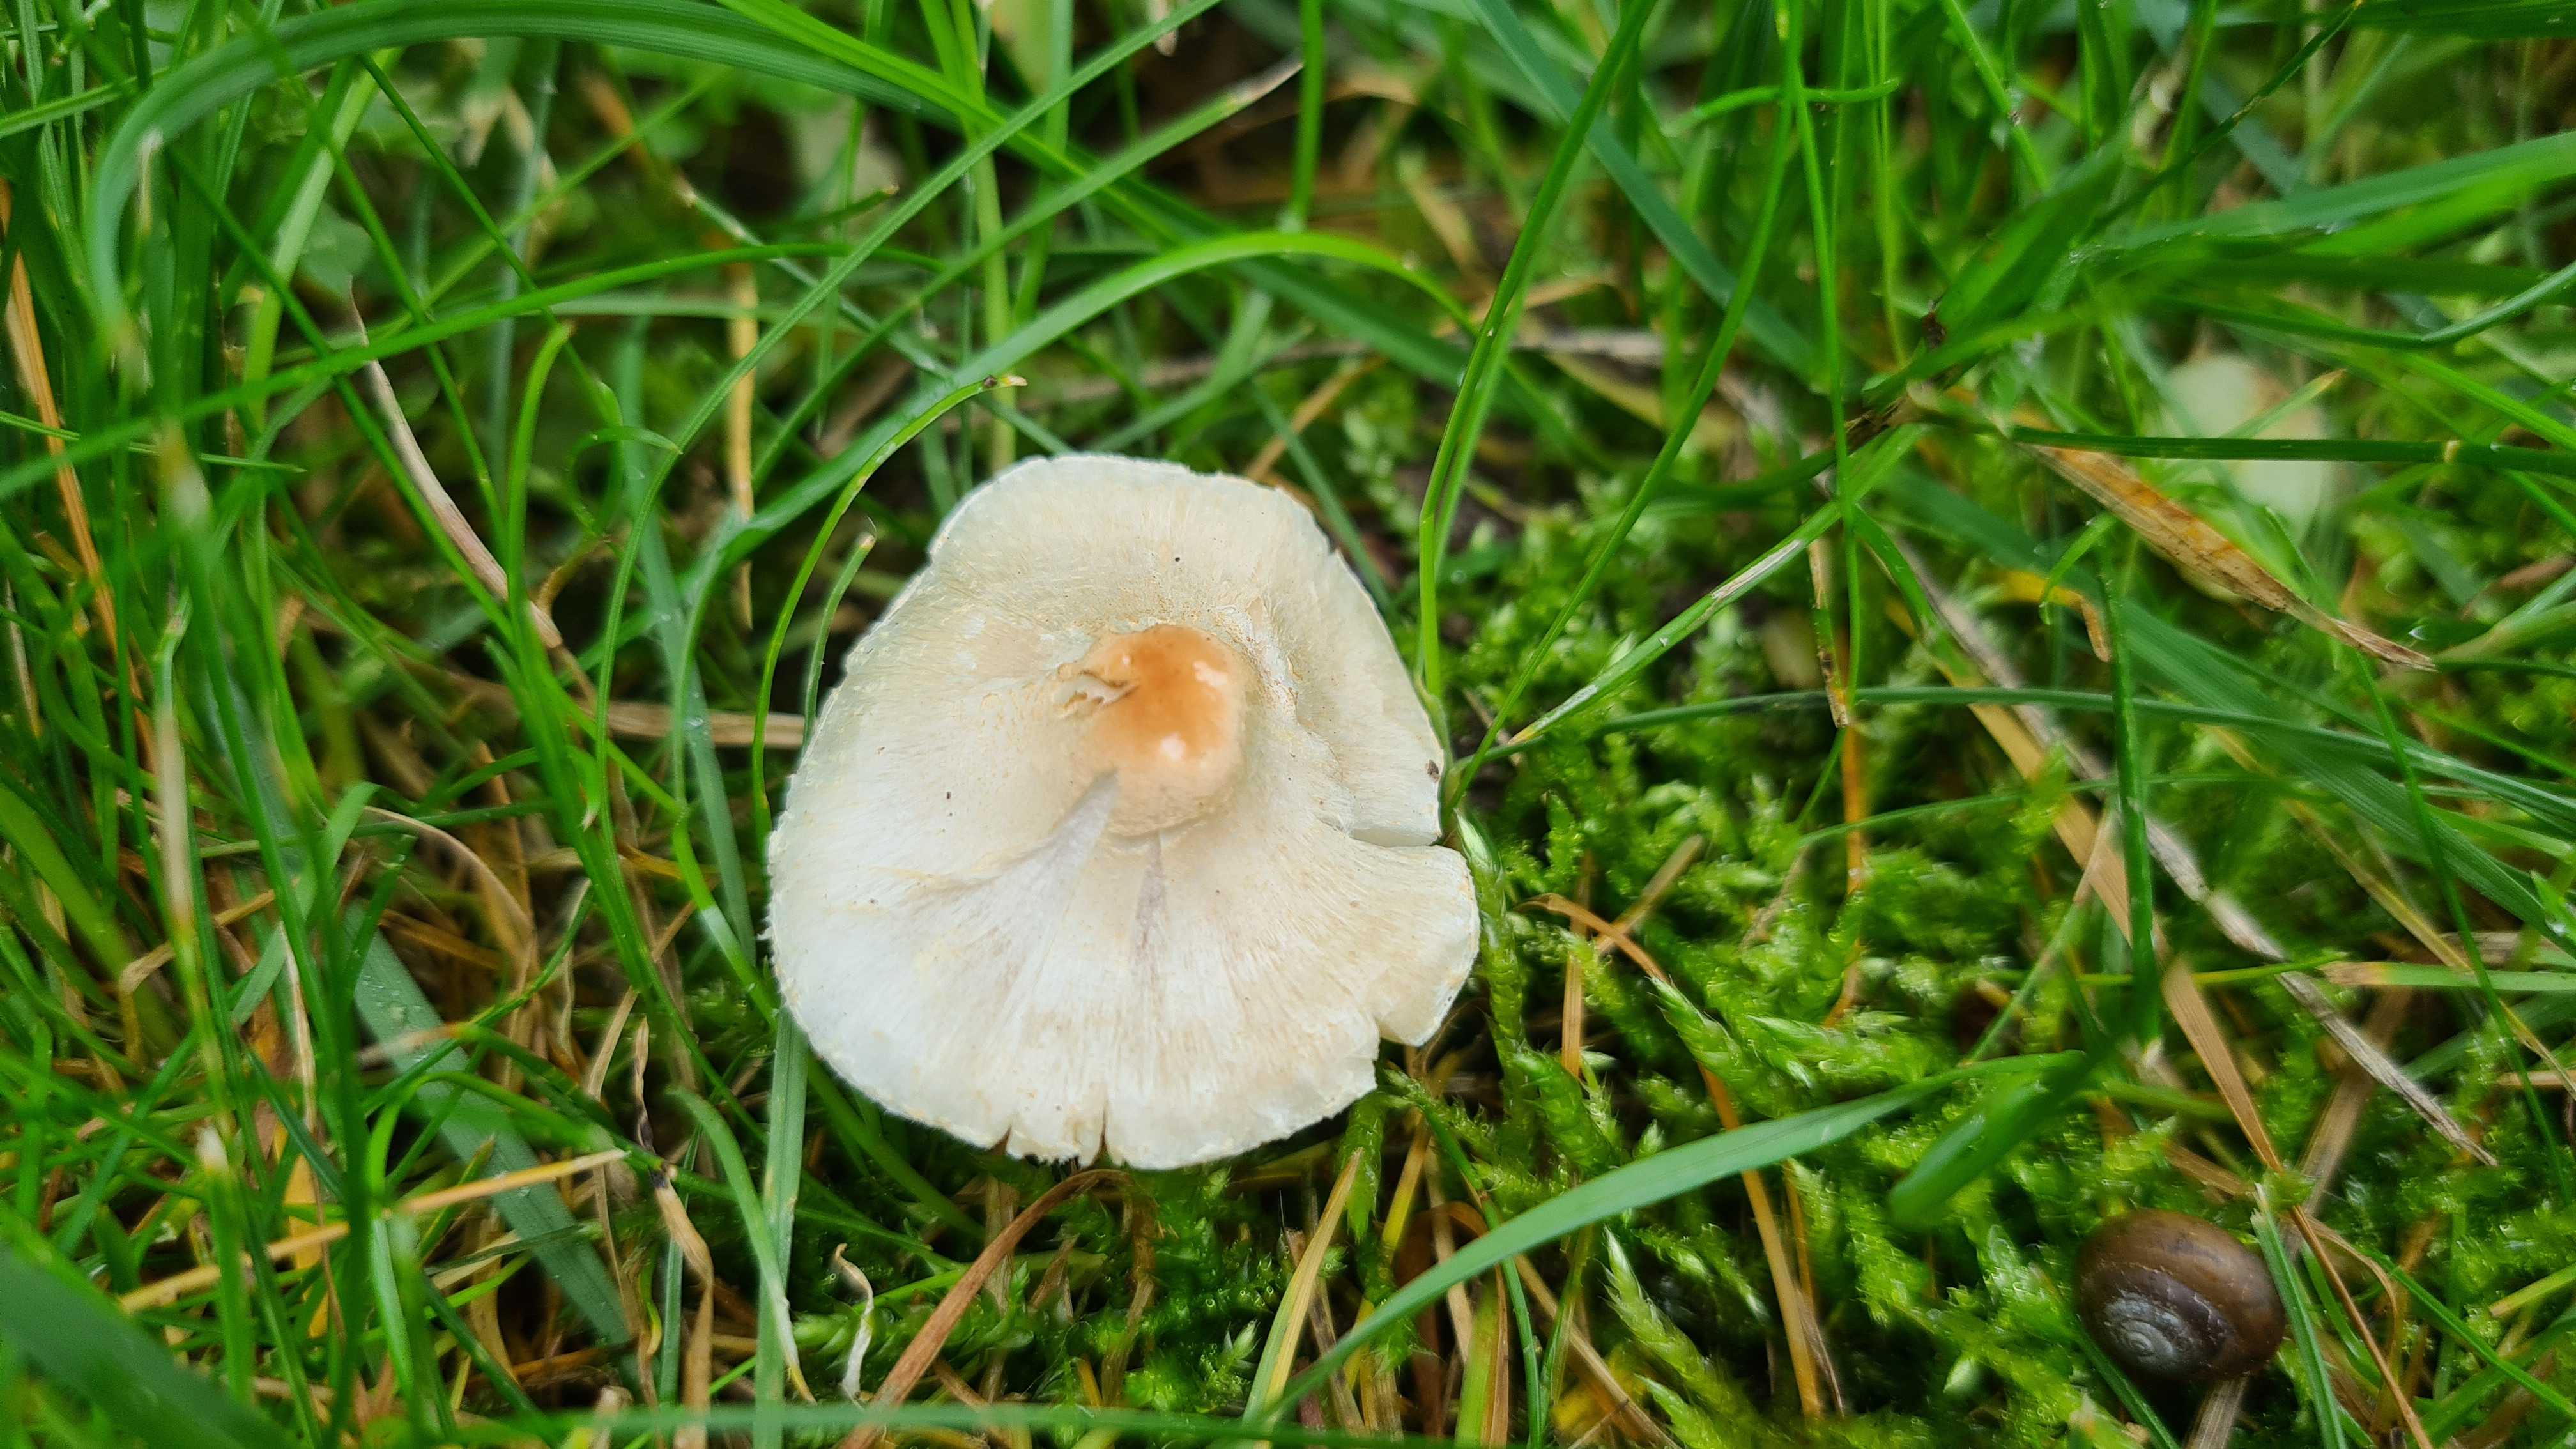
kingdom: Fungi
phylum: Basidiomycota
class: Agaricomycetes
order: Agaricales
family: Agaricaceae
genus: Lepiota
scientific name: Lepiota cristata
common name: stinkende parasolhat
